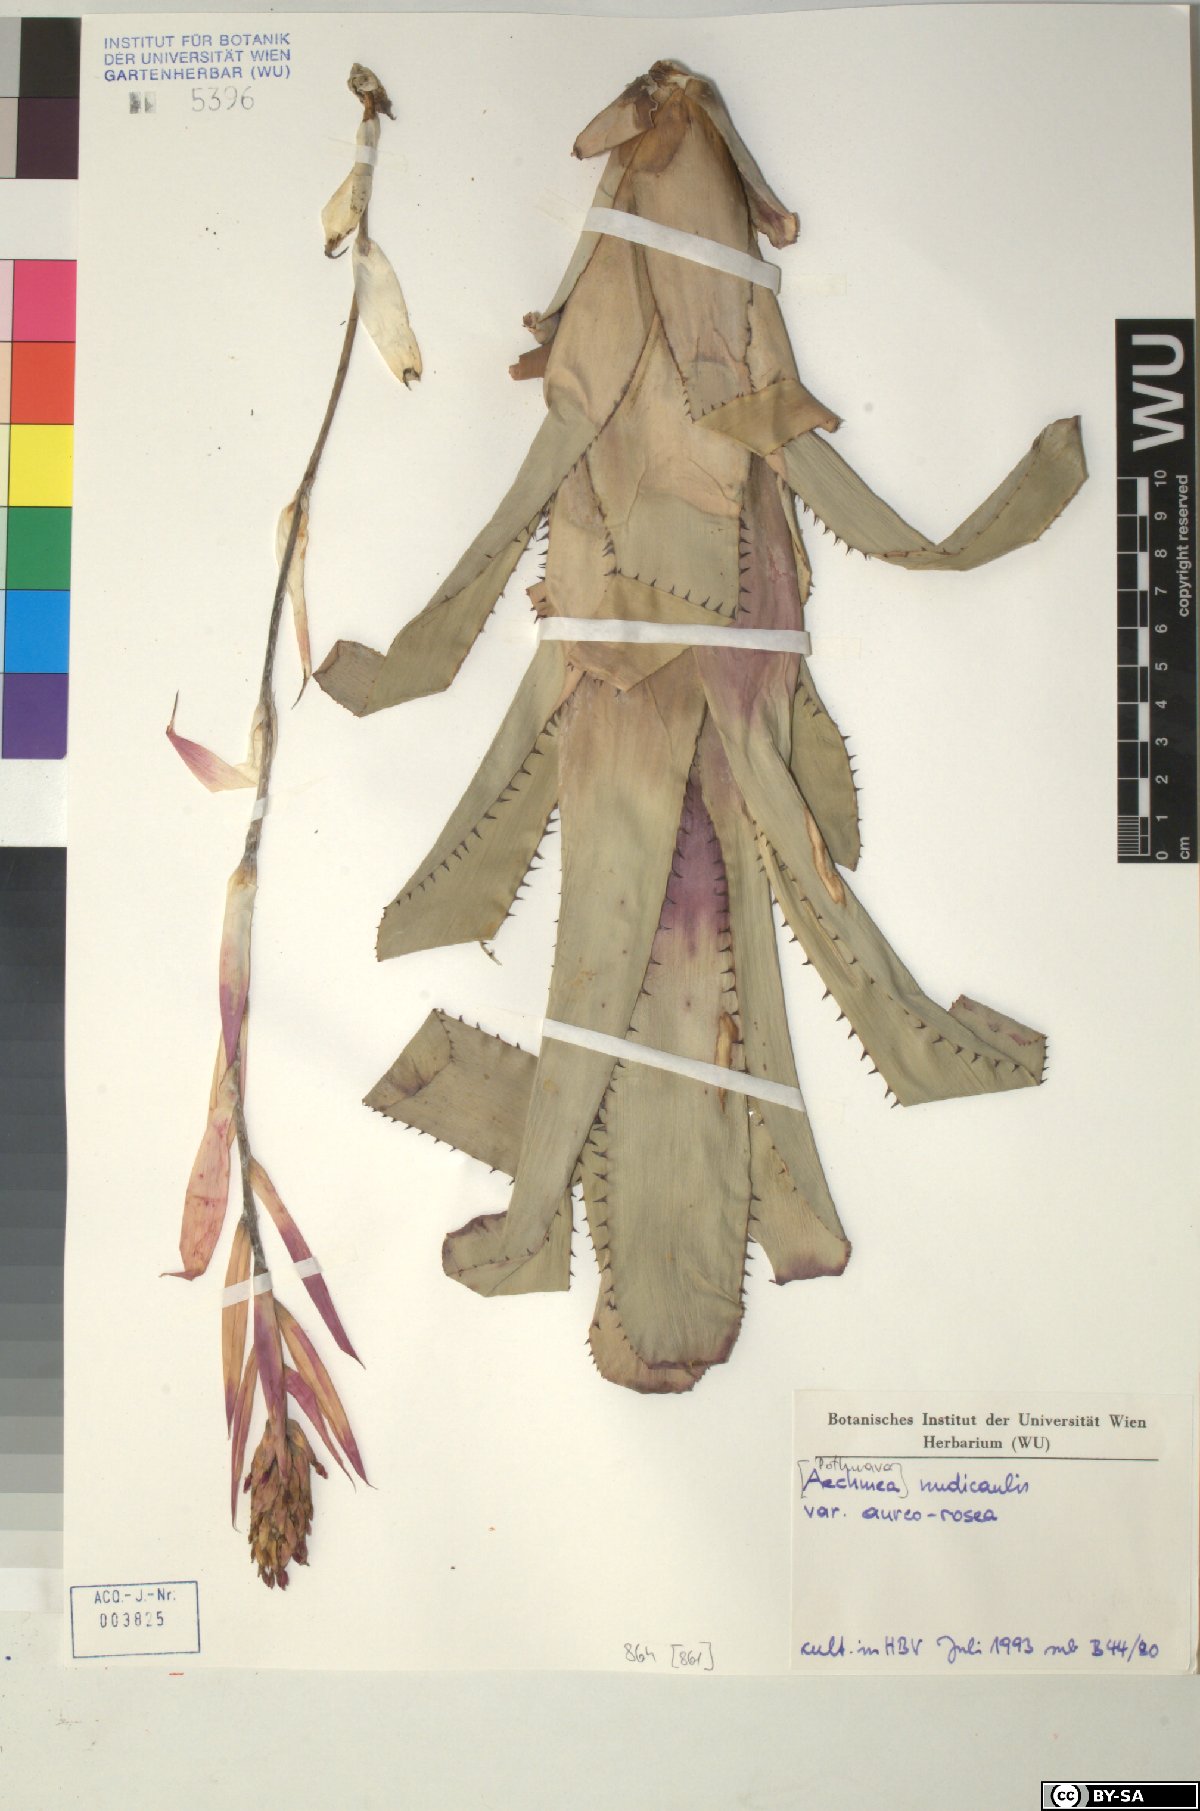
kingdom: Plantae
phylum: Tracheophyta
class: Liliopsida
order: Poales
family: Bromeliaceae
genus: Aechmea
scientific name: Aechmea nudicaulis
